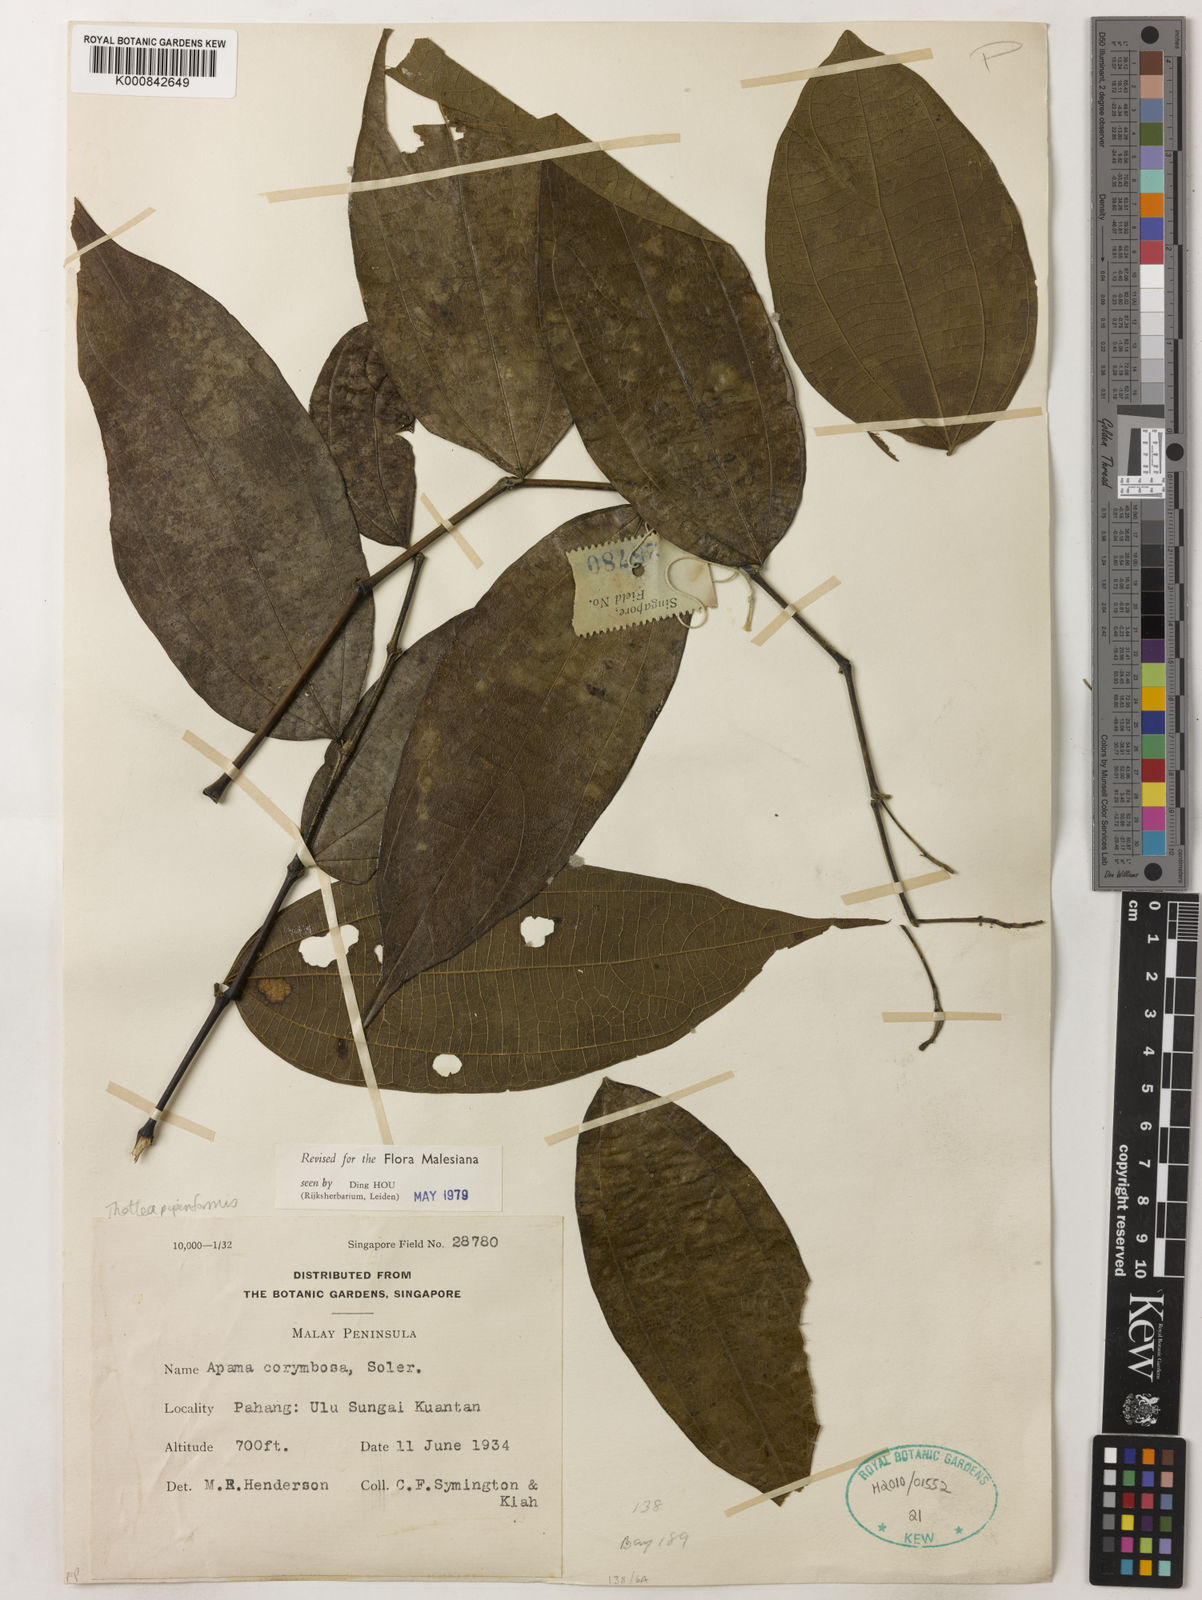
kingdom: Plantae
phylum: Tracheophyta
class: Magnoliopsida
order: Piperales
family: Aristolochiaceae
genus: Thottea
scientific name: Thottea piperiformis
